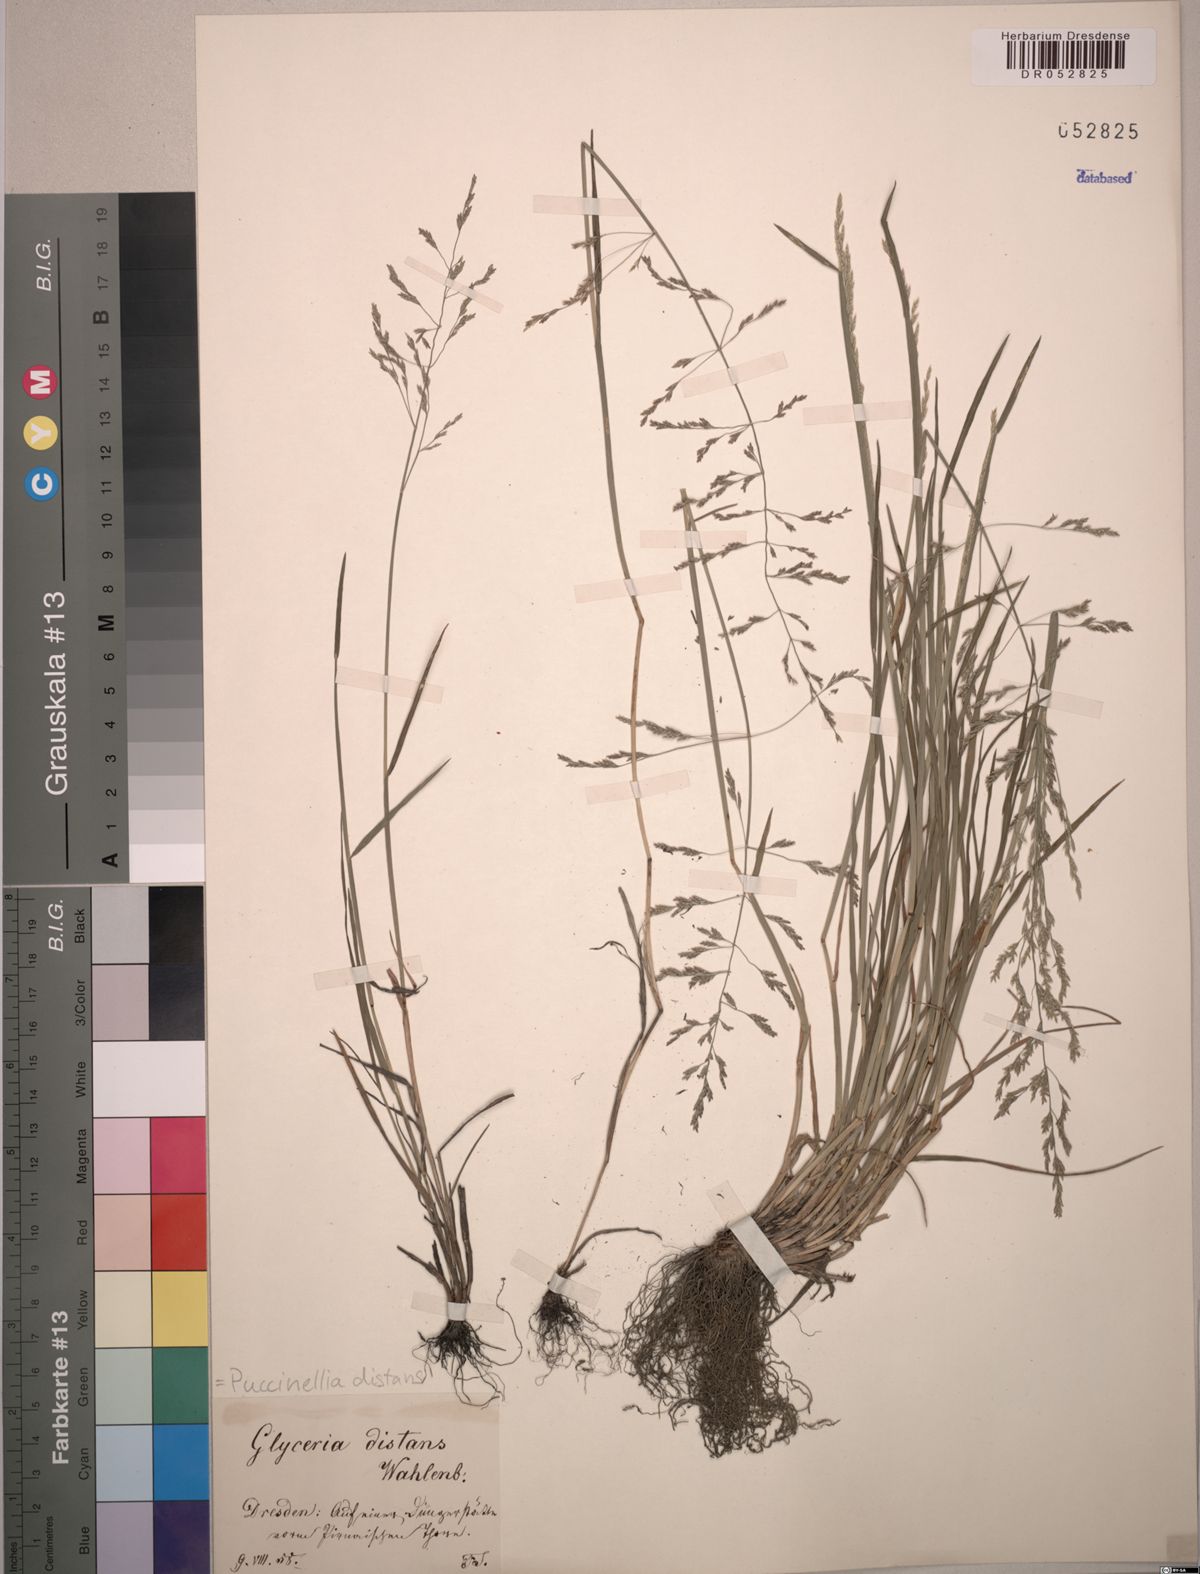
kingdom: Plantae
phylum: Tracheophyta
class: Liliopsida
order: Poales
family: Poaceae
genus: Puccinellia
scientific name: Puccinellia distans
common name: Weeping alkaligrass
